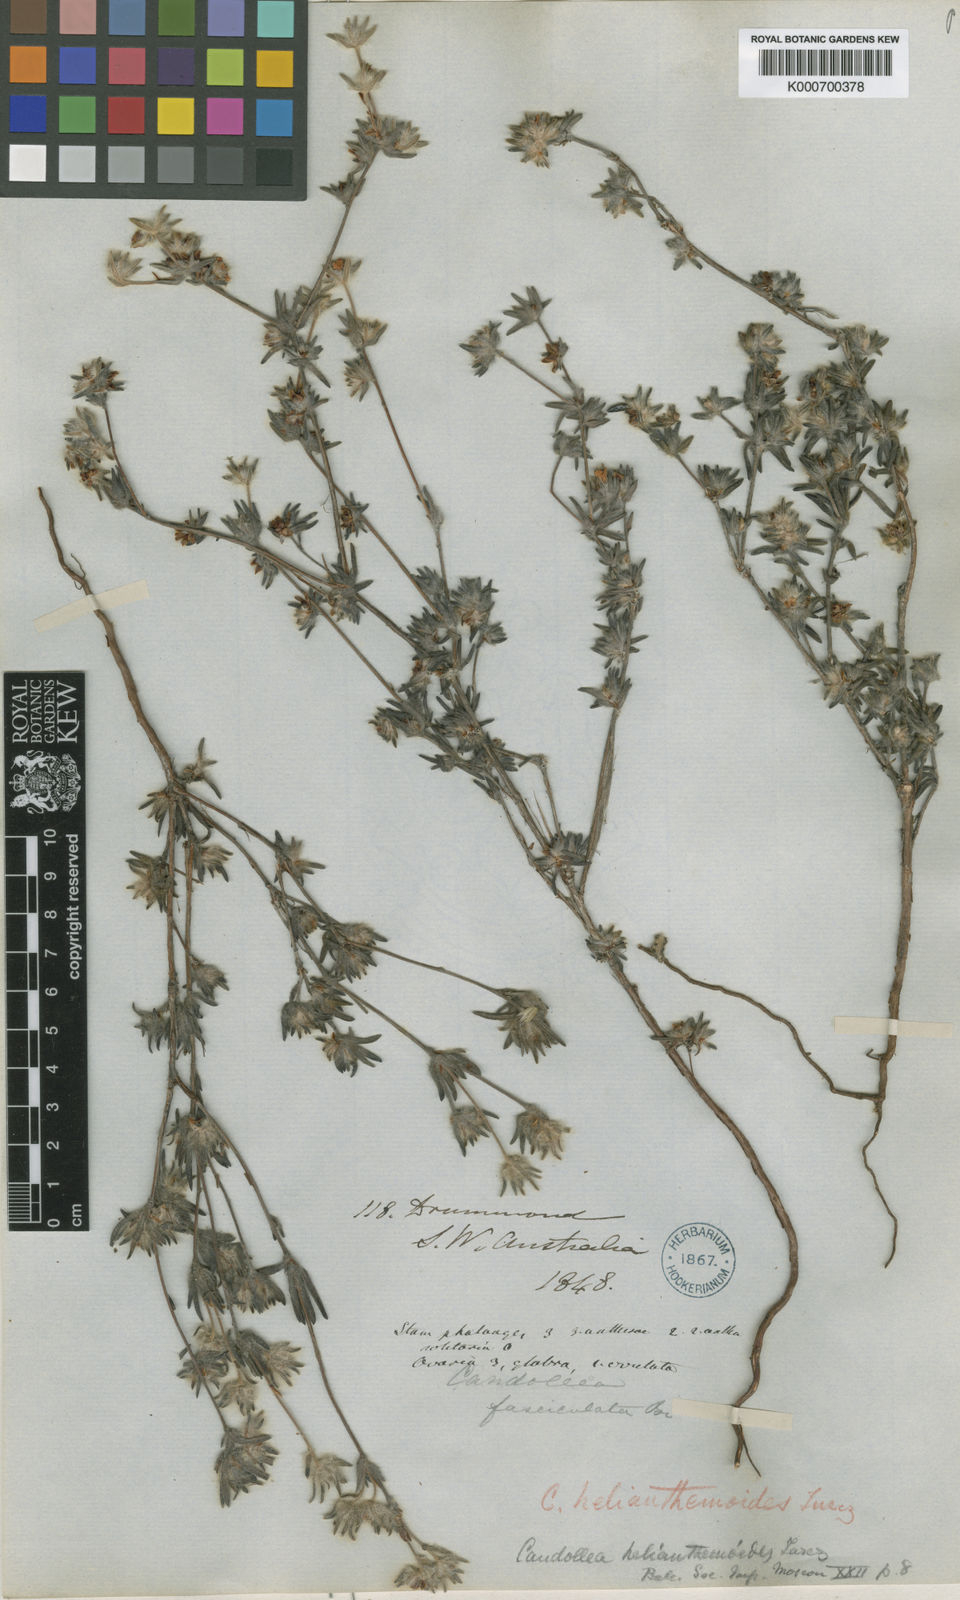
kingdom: Plantae
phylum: Tracheophyta
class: Magnoliopsida
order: Dilleniales
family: Dilleniaceae
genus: Hibbertia
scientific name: Hibbertia helianthemoides
